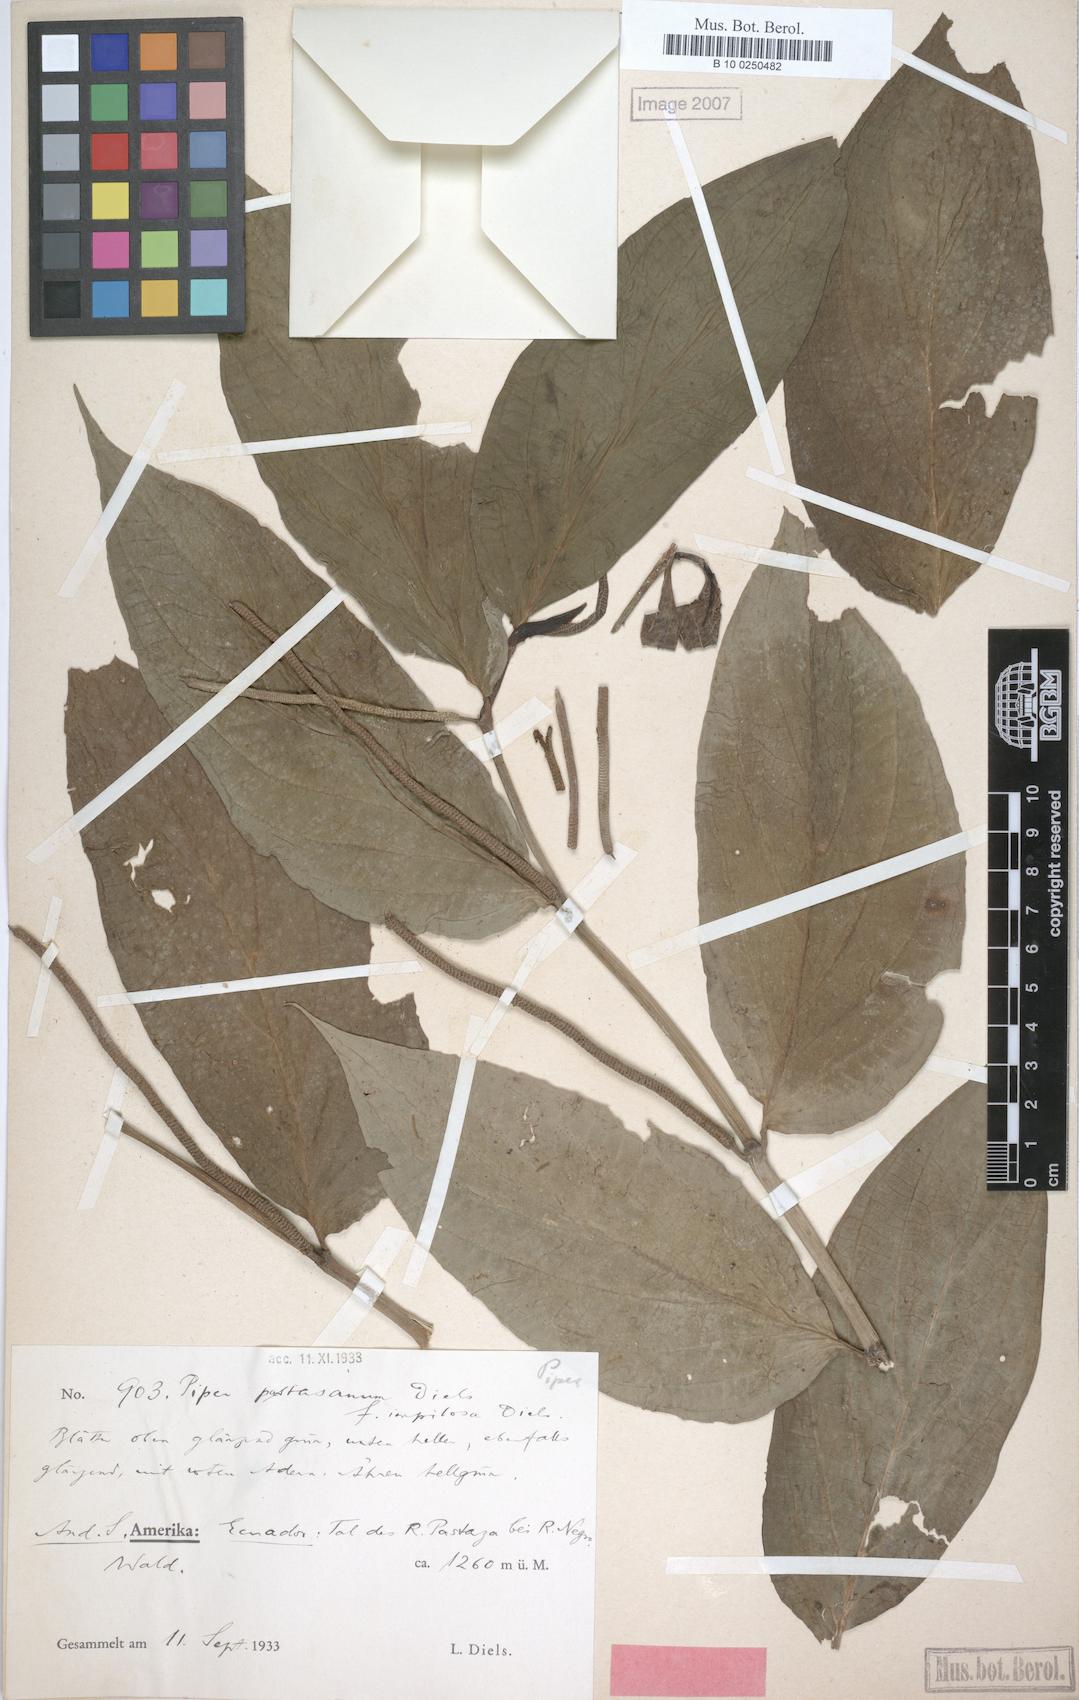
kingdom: Plantae
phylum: Tracheophyta
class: Magnoliopsida
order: Piperales
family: Piperaceae
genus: Piper
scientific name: Piper pastasanum
